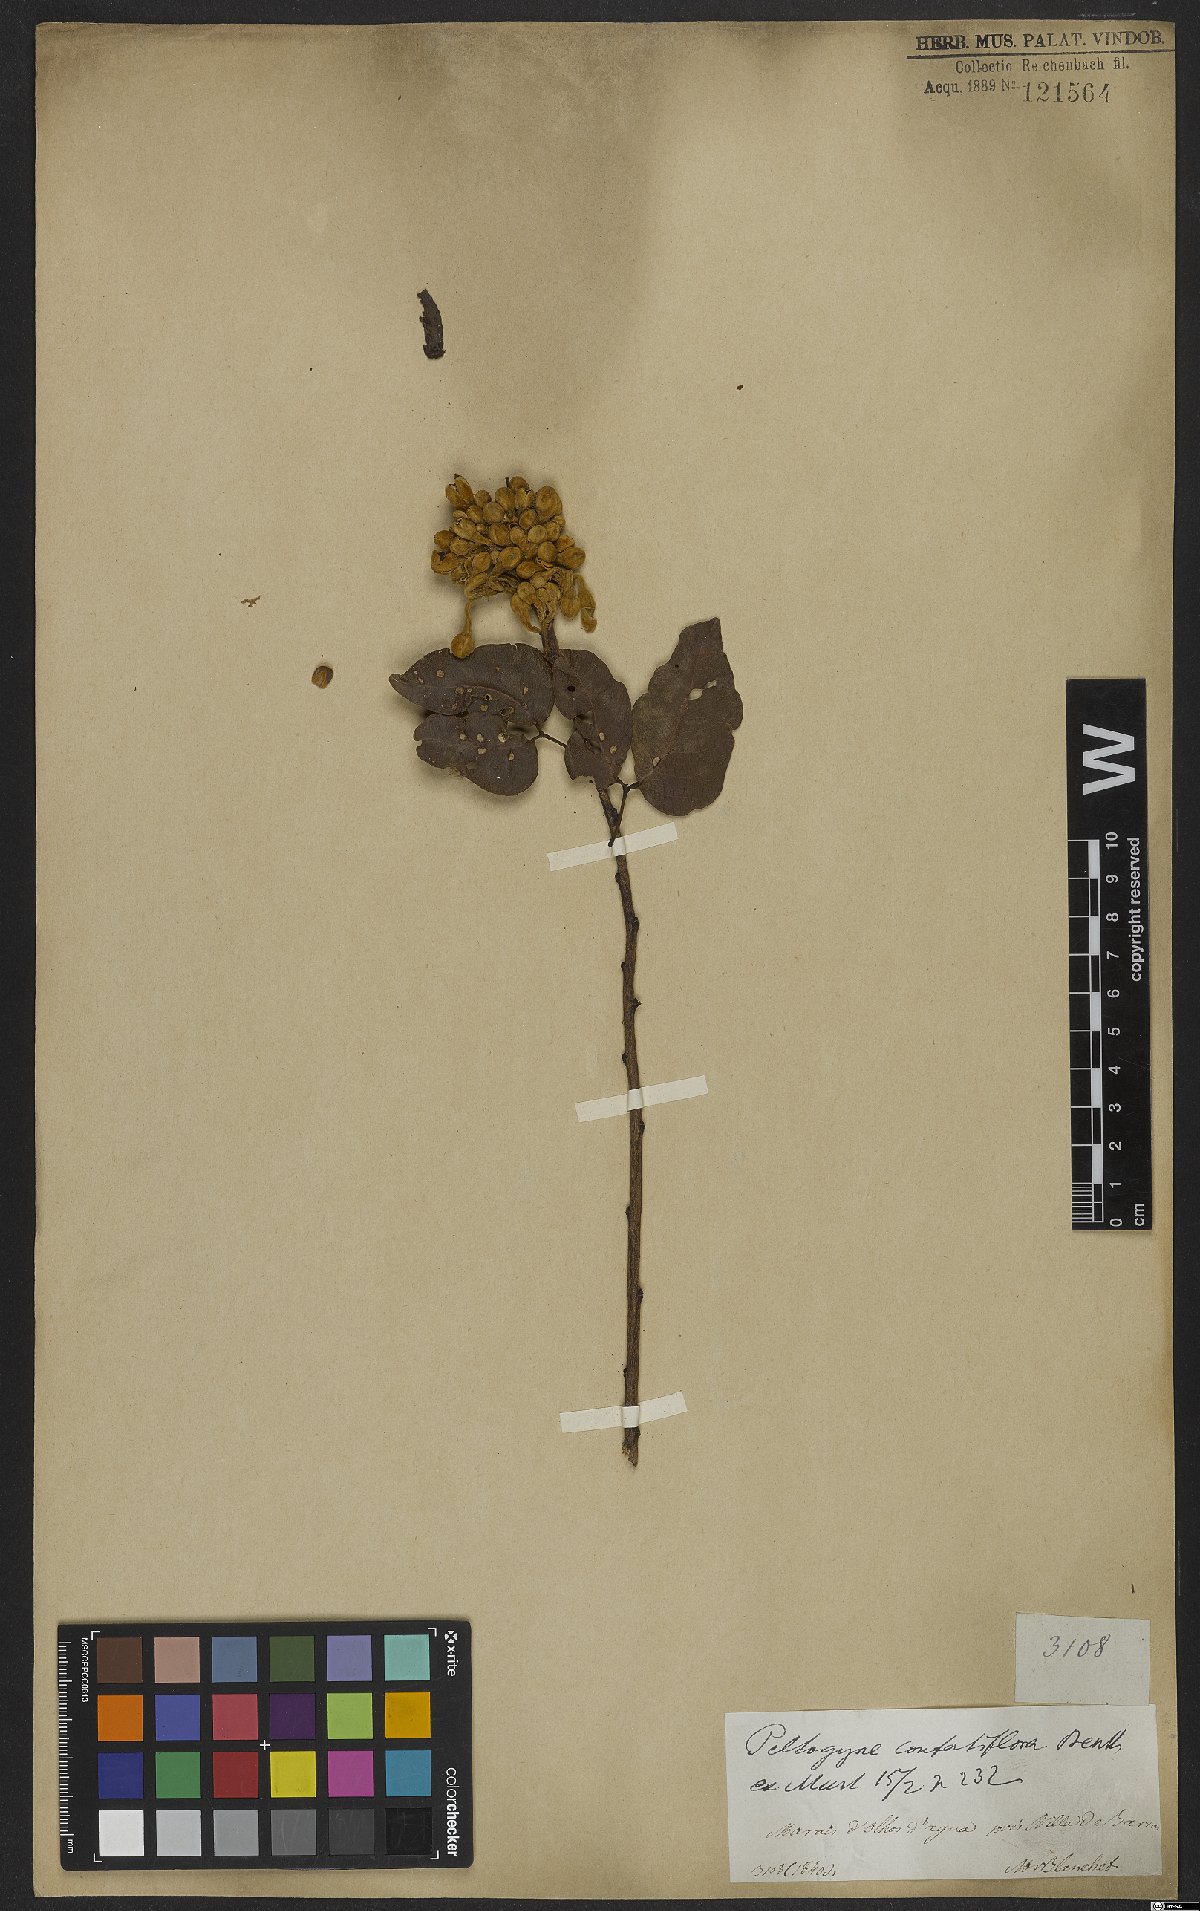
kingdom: Plantae
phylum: Tracheophyta
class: Magnoliopsida
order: Fabales
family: Fabaceae
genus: Peltogyne
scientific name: Peltogyne confertiflora
